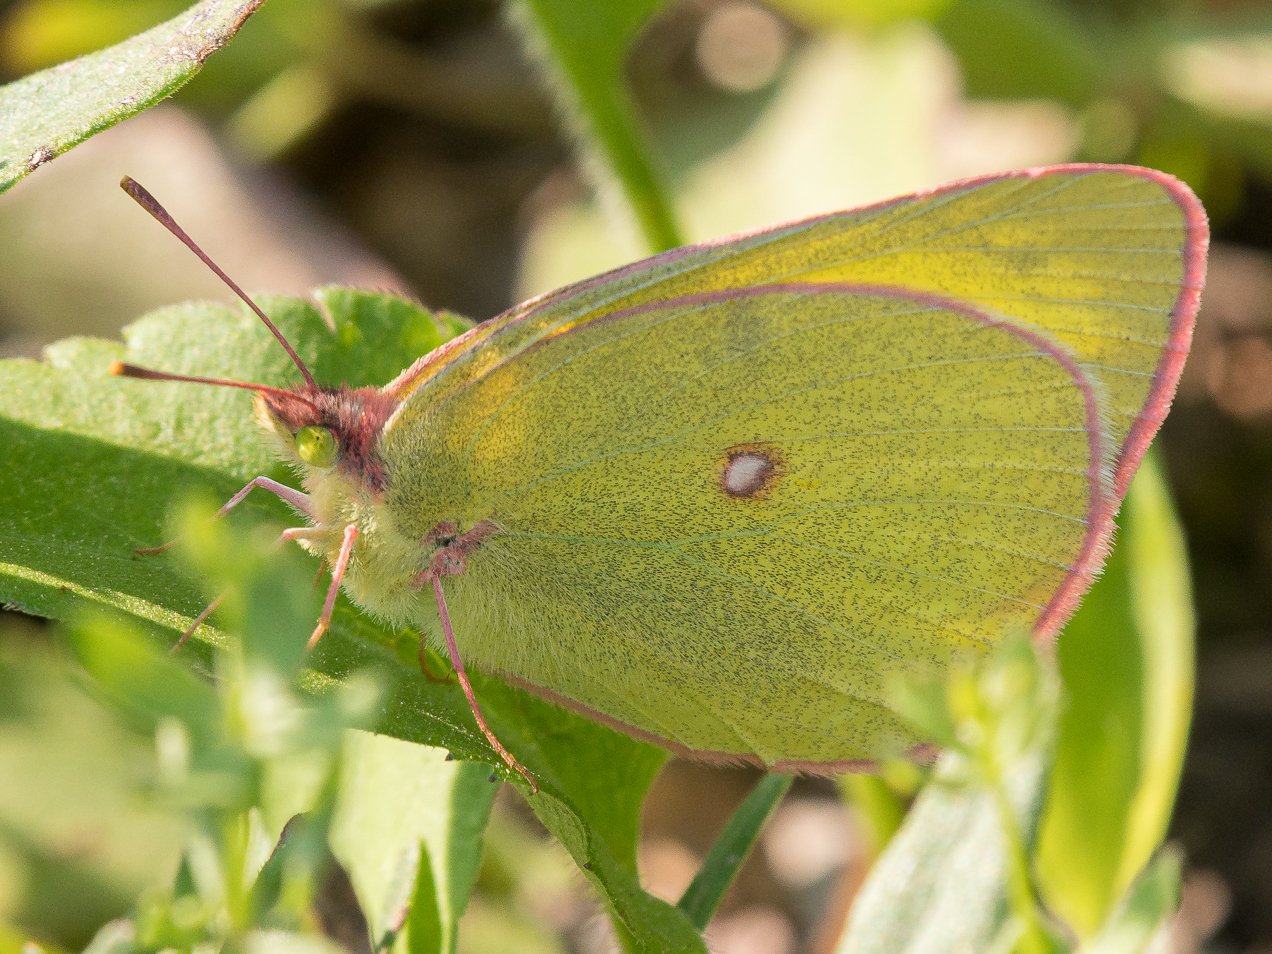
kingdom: Animalia
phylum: Arthropoda
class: Insecta
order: Lepidoptera
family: Pieridae
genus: Colias
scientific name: Colias interior
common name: Pink-edged Sulphur
